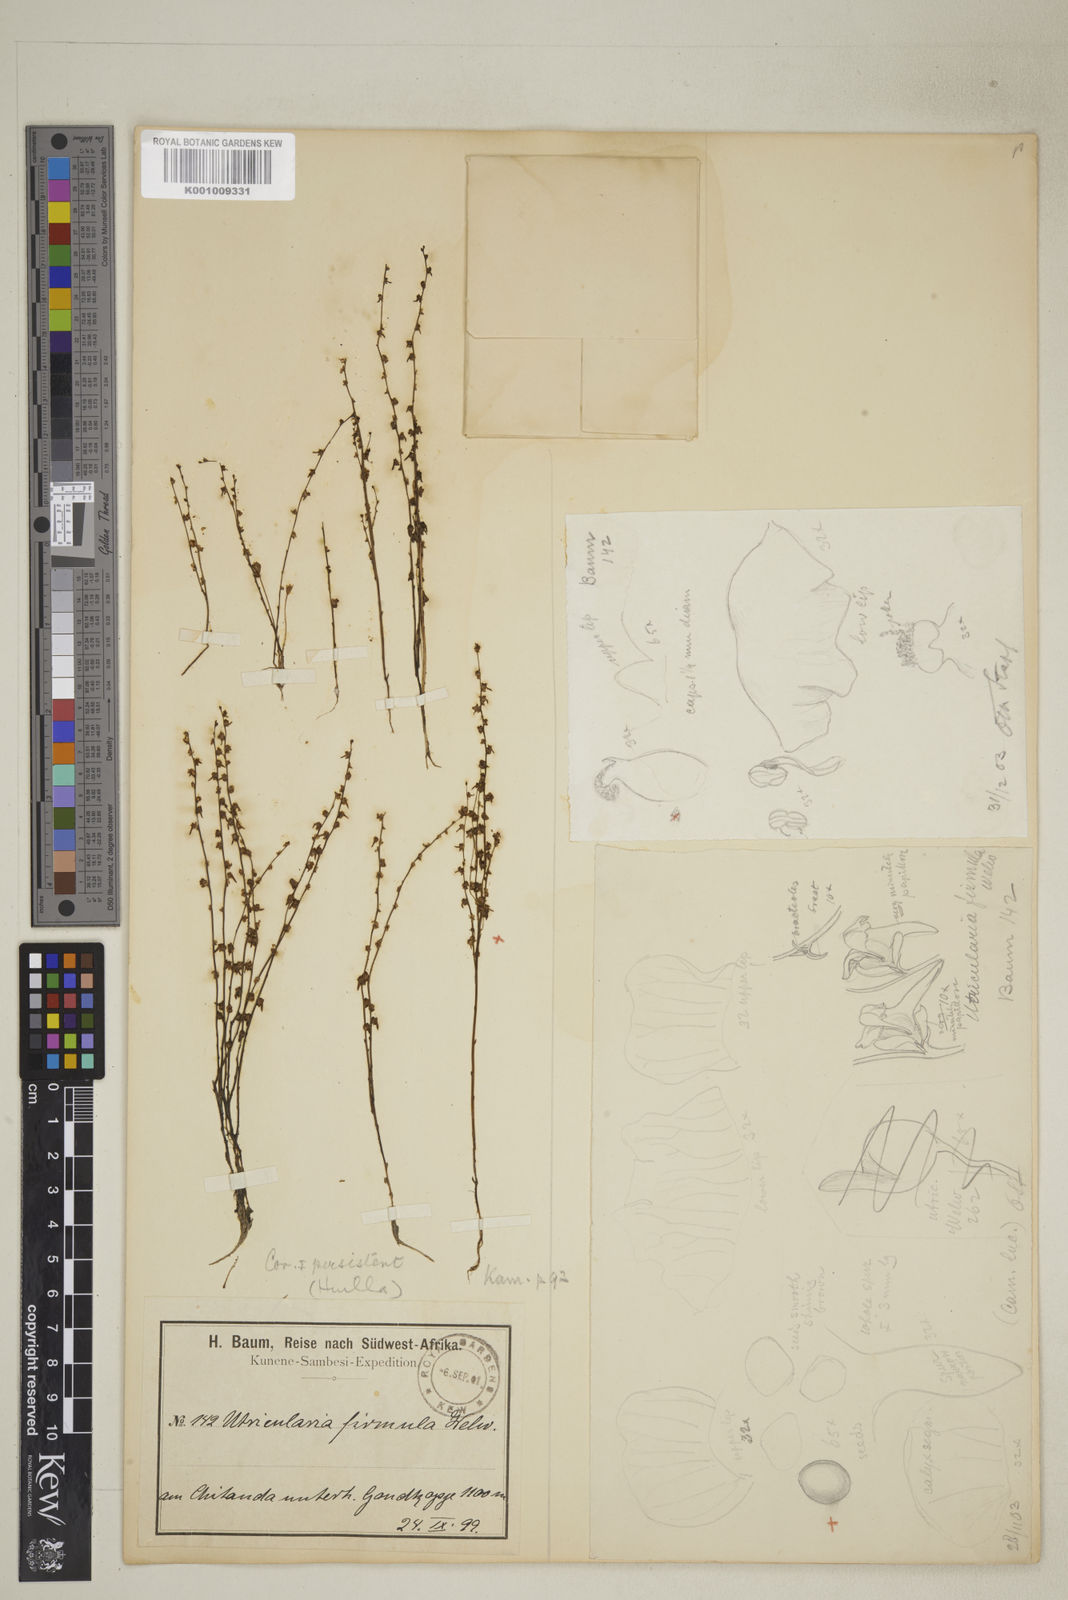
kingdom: Plantae
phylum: Tracheophyta
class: Magnoliopsida
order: Lamiales
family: Lentibulariaceae
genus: Utricularia
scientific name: Utricularia firmula
